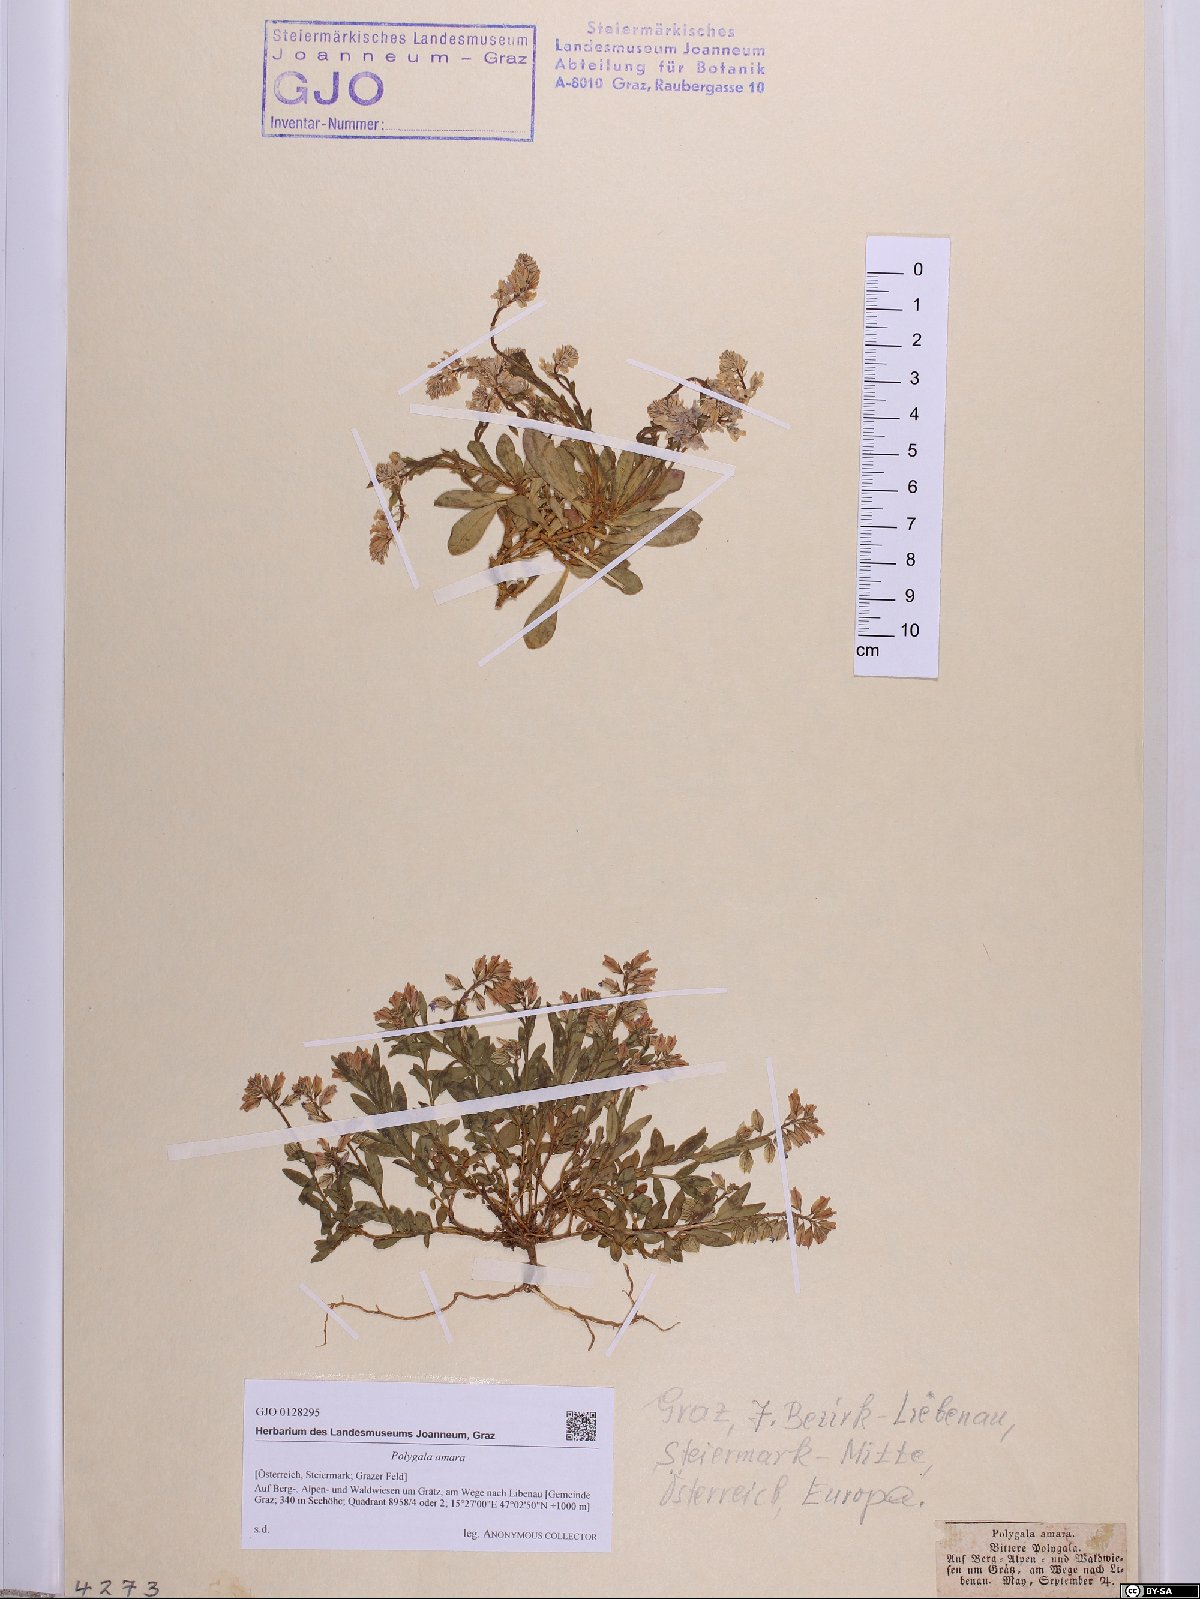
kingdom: Plantae
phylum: Tracheophyta
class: Magnoliopsida
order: Fabales
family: Polygalaceae
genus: Polygala
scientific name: Polygala amara
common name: Milkwort
